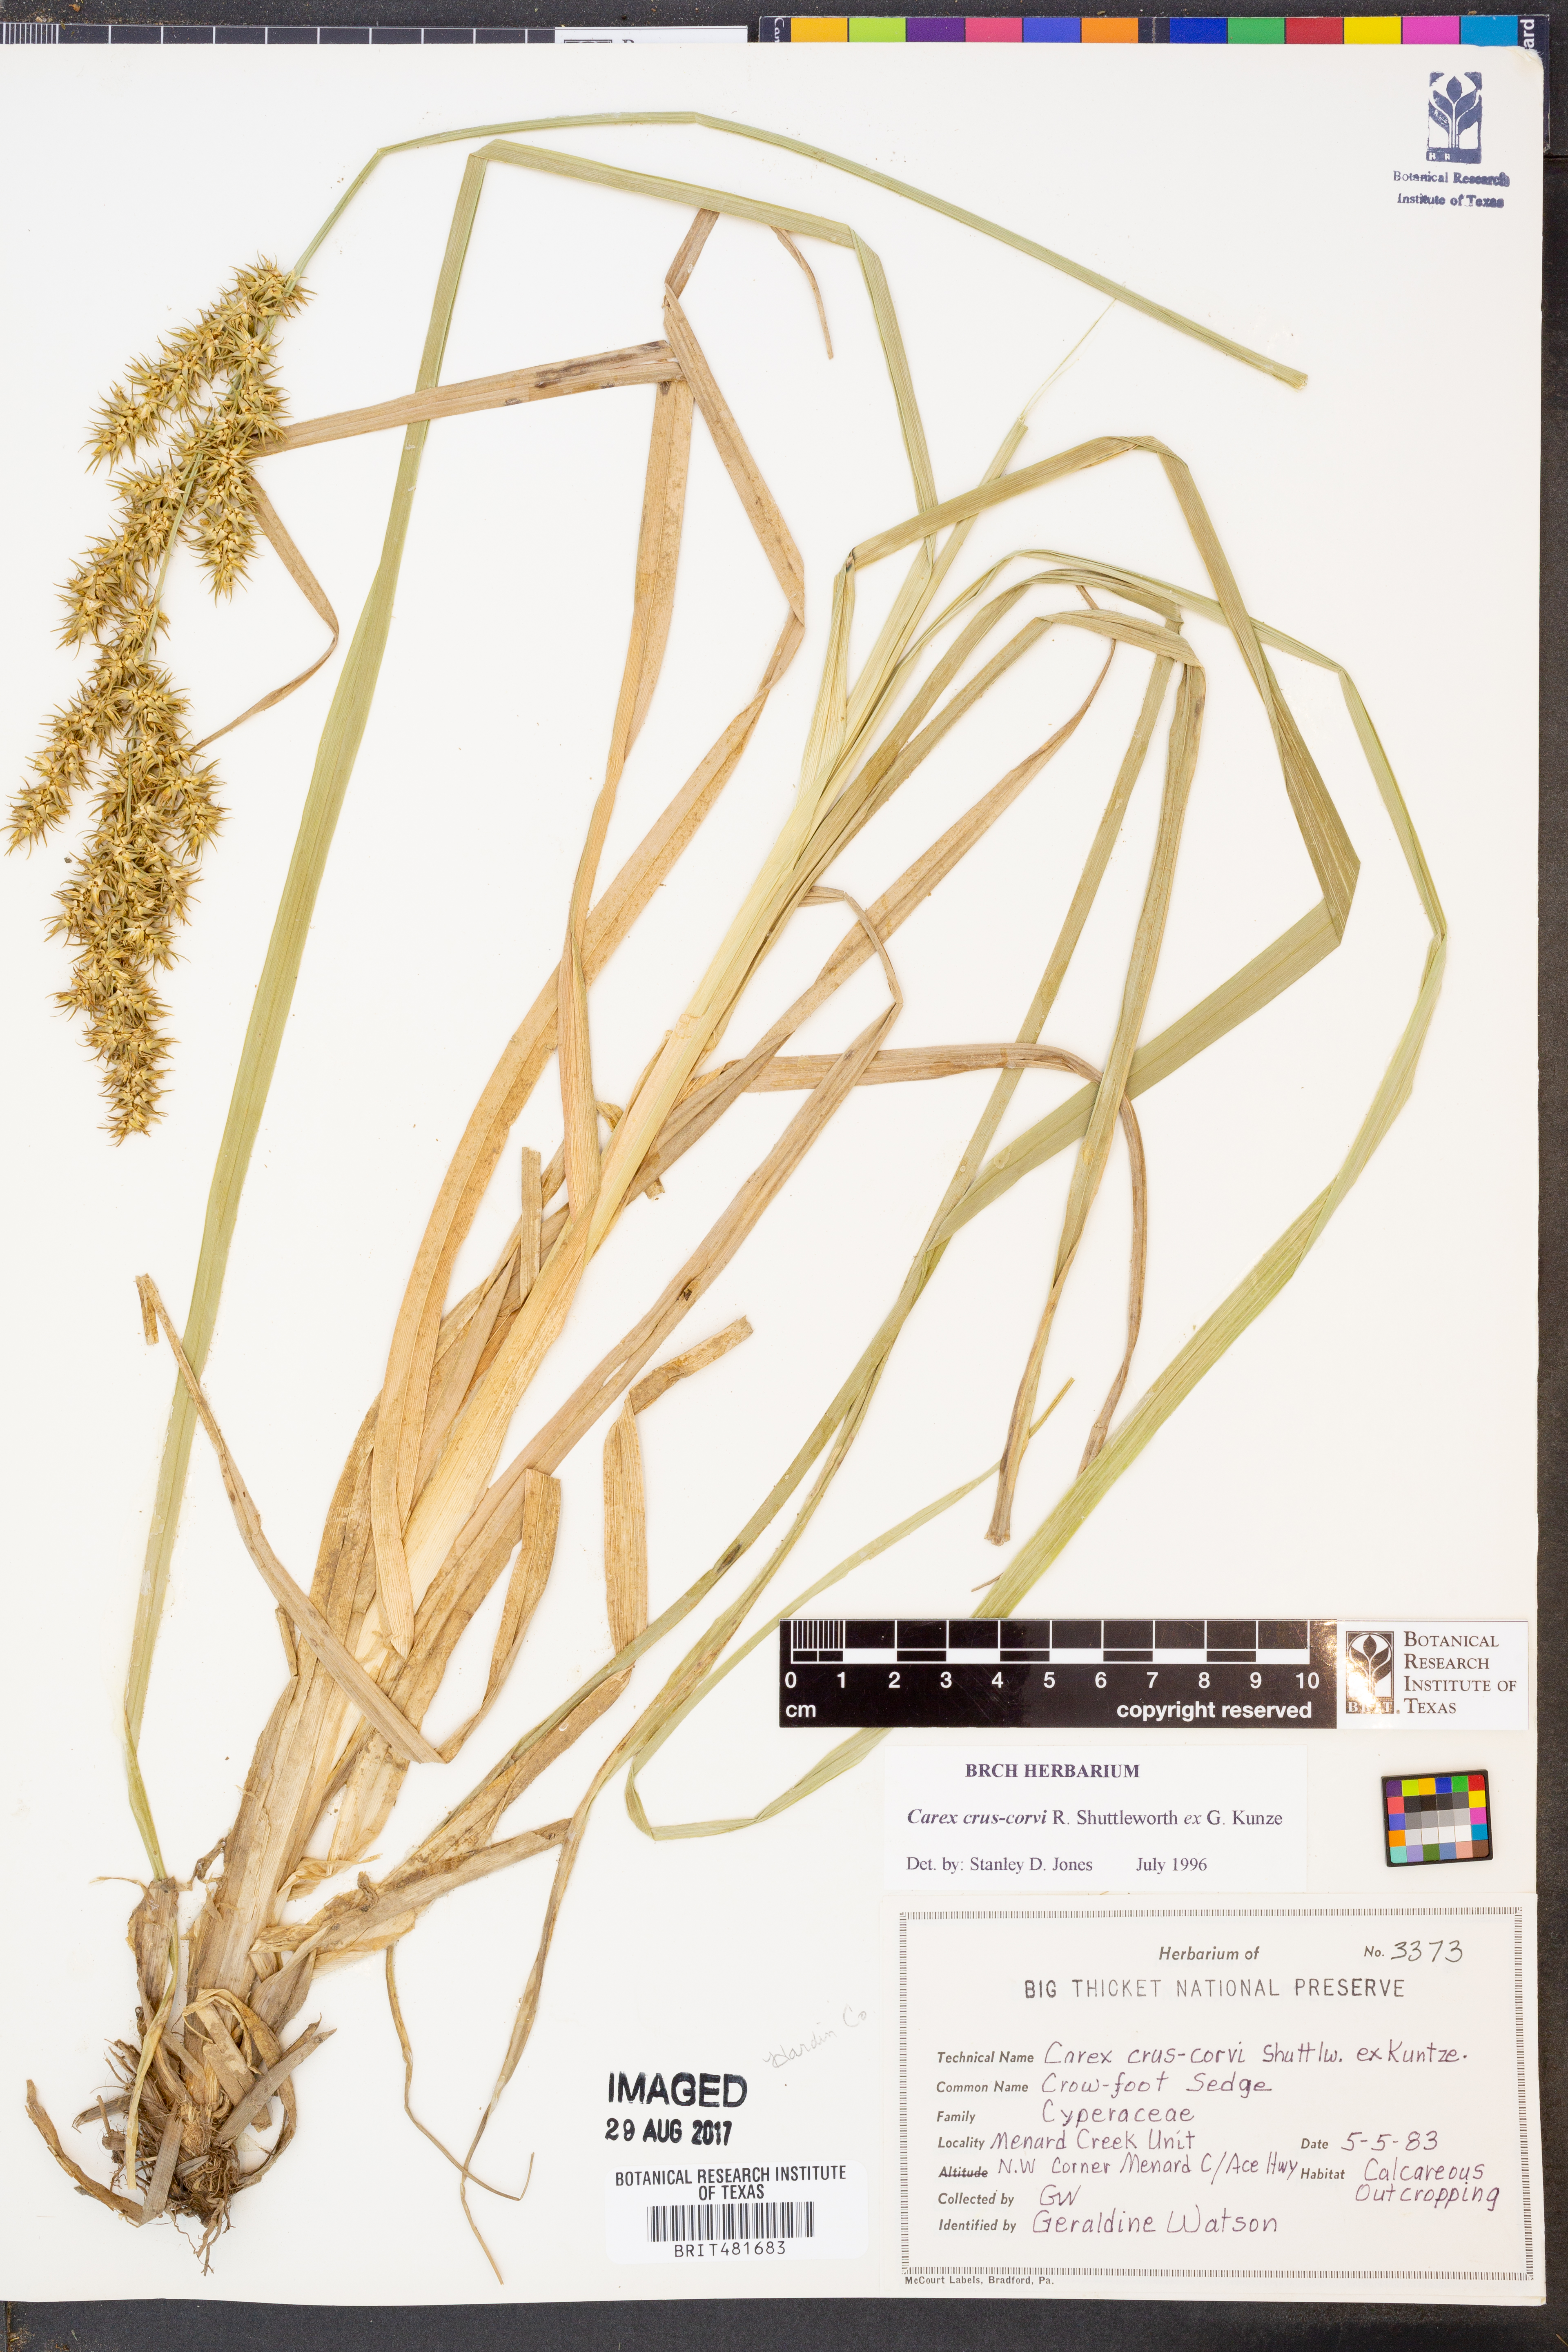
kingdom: Plantae
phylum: Tracheophyta
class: Liliopsida
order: Poales
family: Cyperaceae
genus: Carex
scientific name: Carex crus-corvi
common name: Crow-spur sedge
